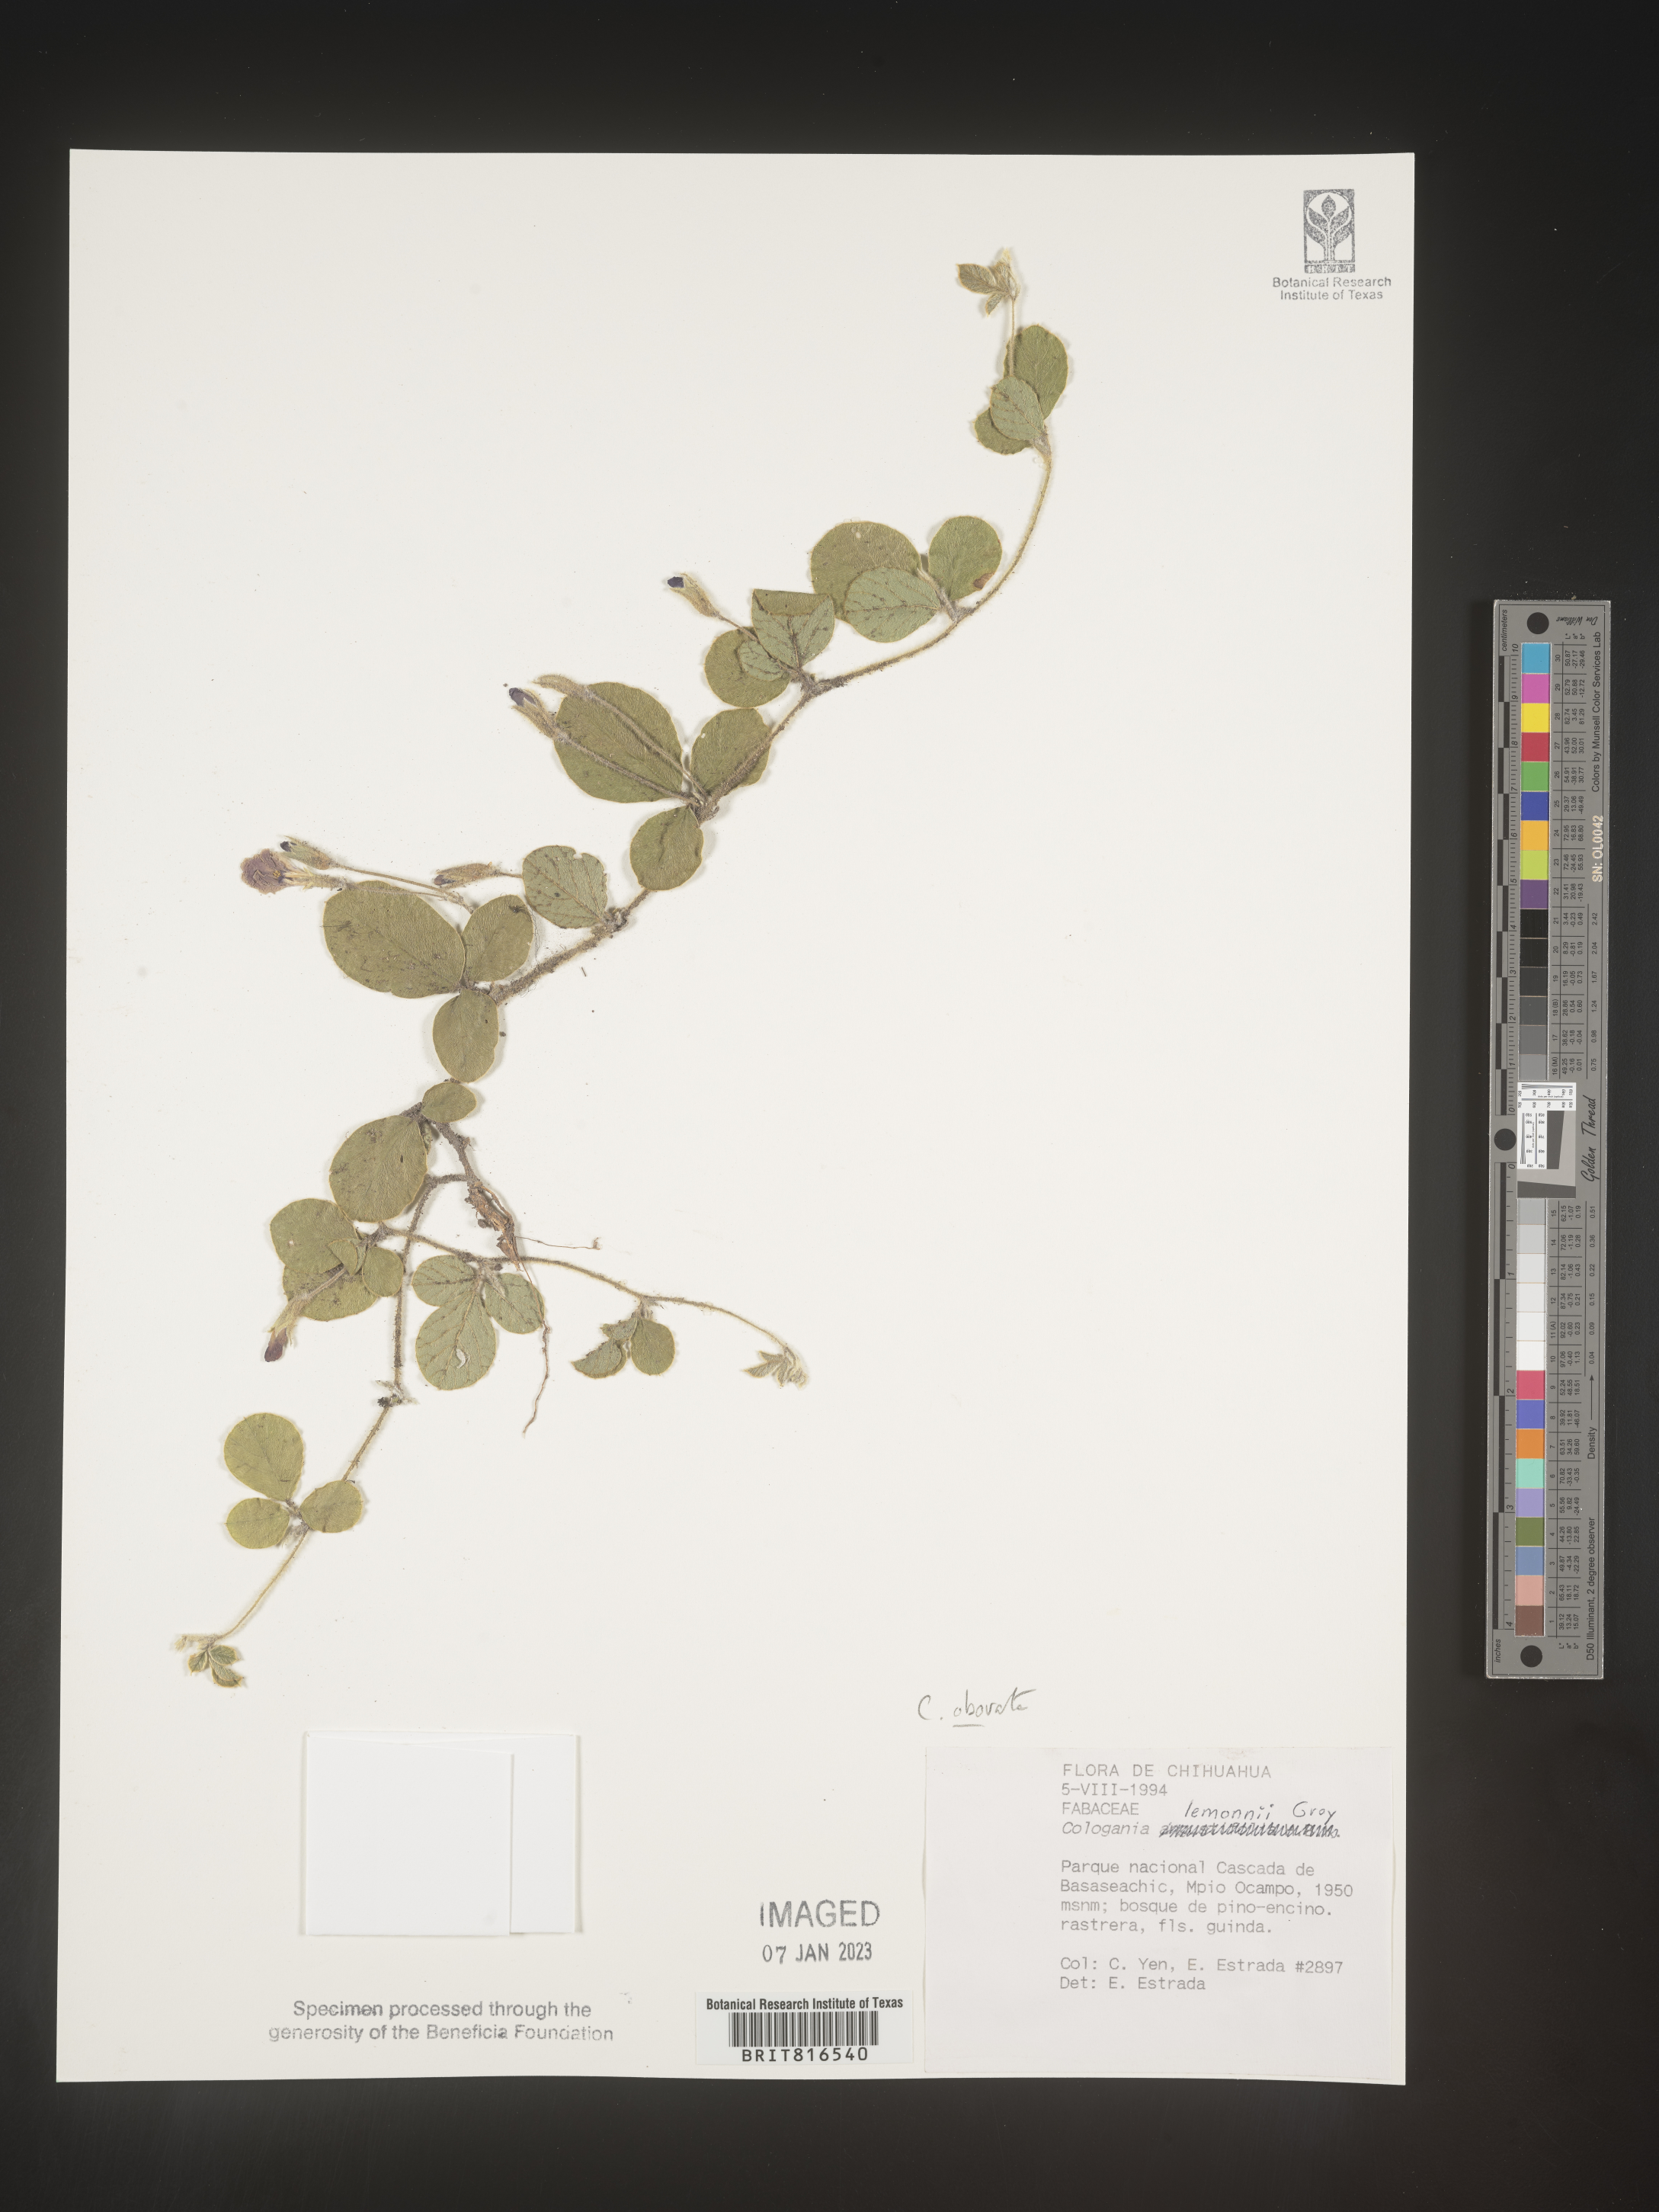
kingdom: Plantae
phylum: Tracheophyta
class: Magnoliopsida
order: Fabales
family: Fabaceae
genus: Cologania
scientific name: Cologania obovata
